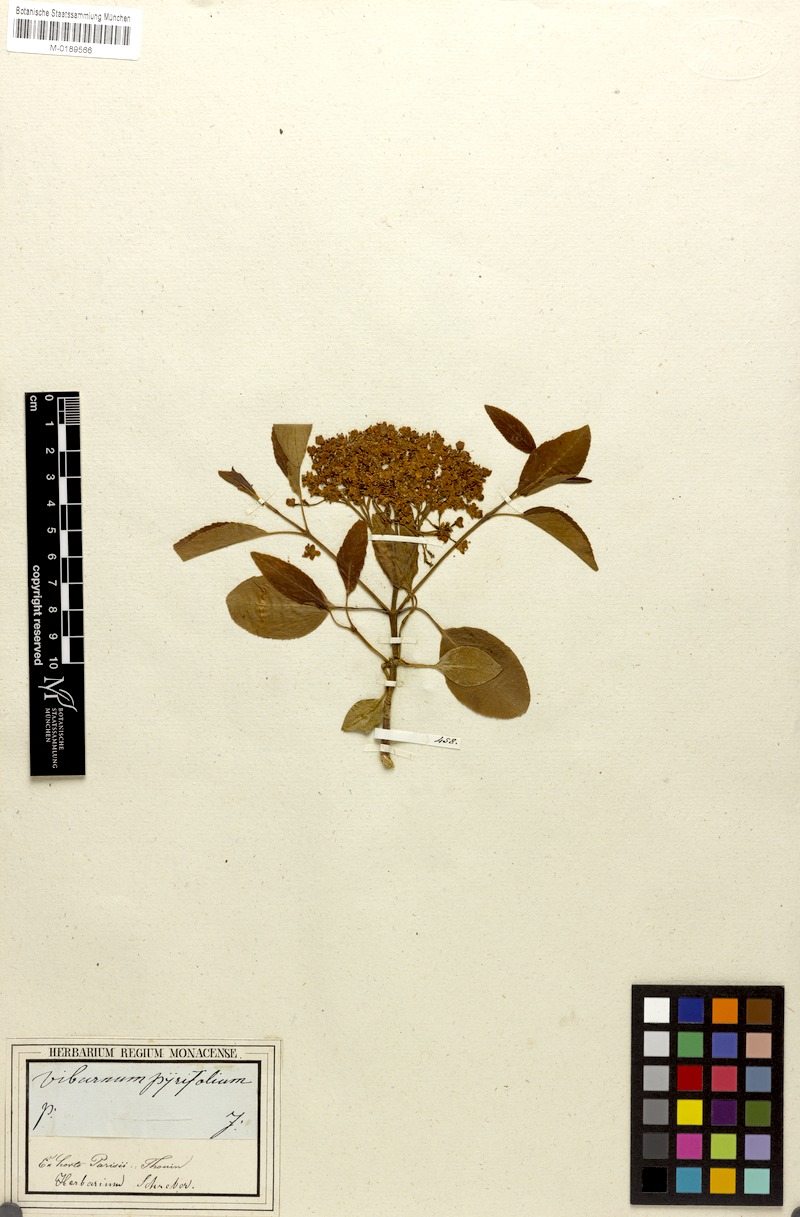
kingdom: Plantae
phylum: Tracheophyta
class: Magnoliopsida
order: Dipsacales
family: Viburnaceae
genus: Viburnum
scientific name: Viburnum prunifolium
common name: Black haw
